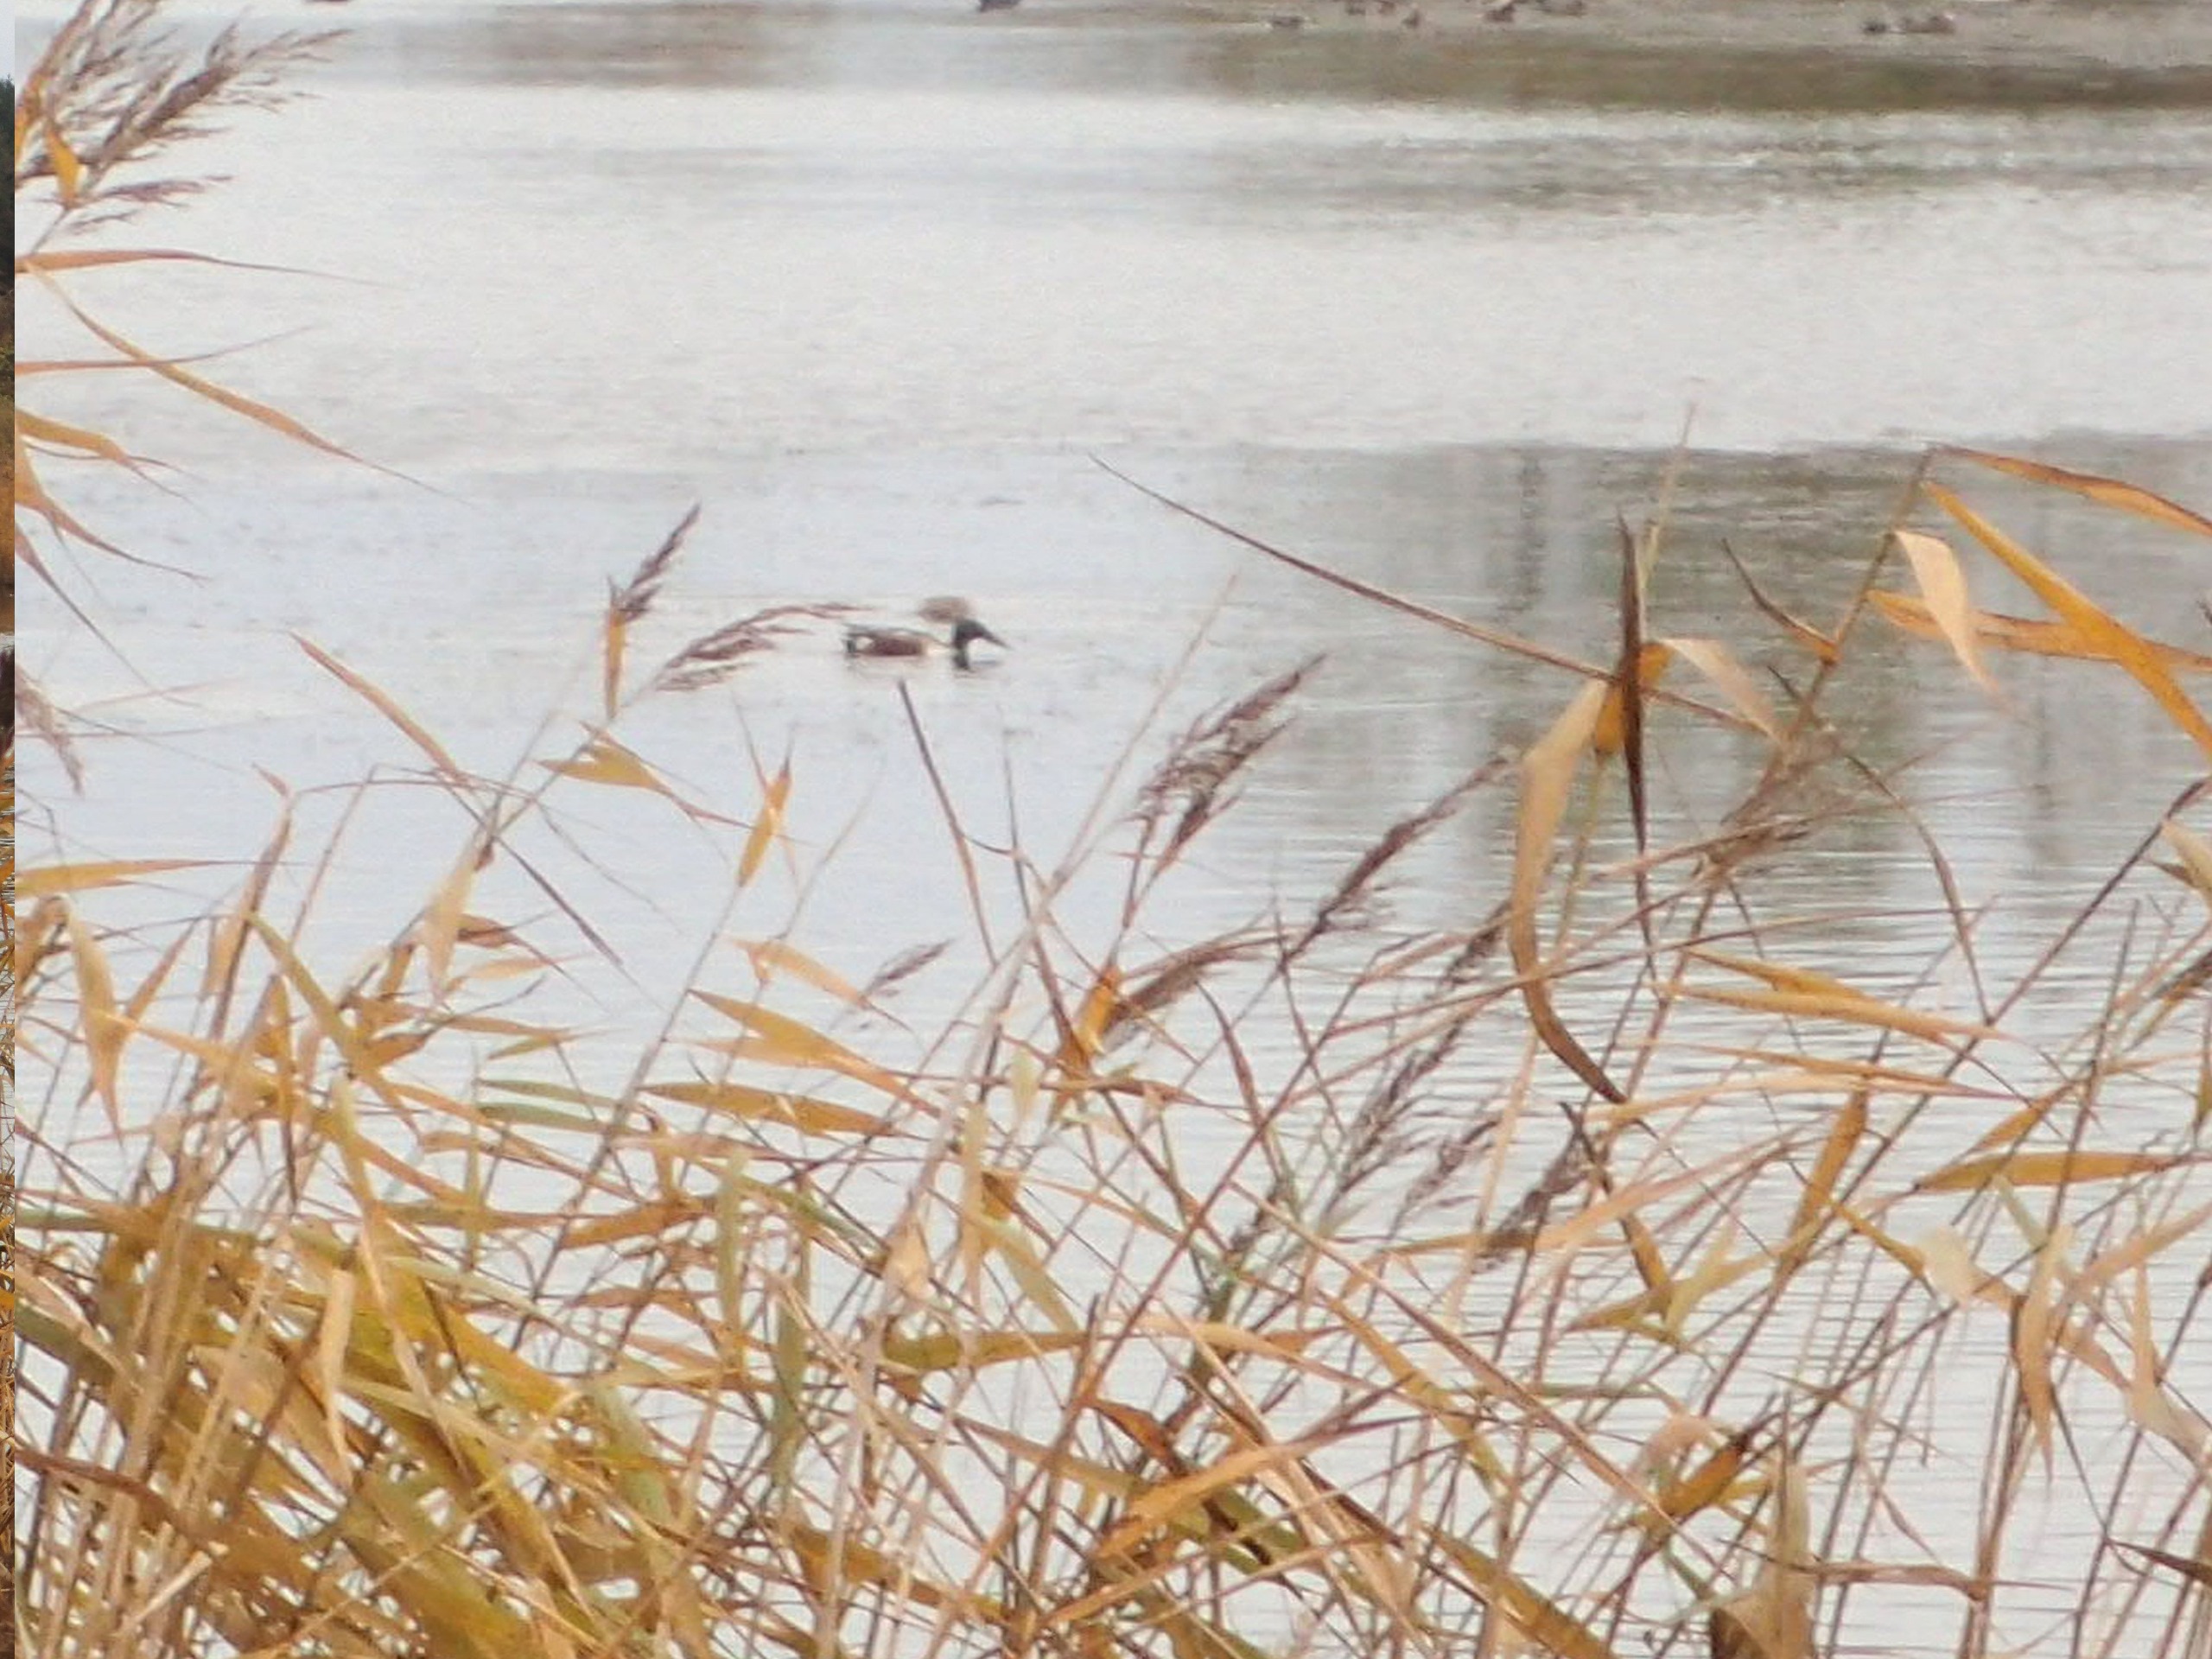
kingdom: Animalia
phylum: Chordata
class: Aves
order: Anseriformes
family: Anatidae
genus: Spatula
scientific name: Spatula clypeata
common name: Skeand
